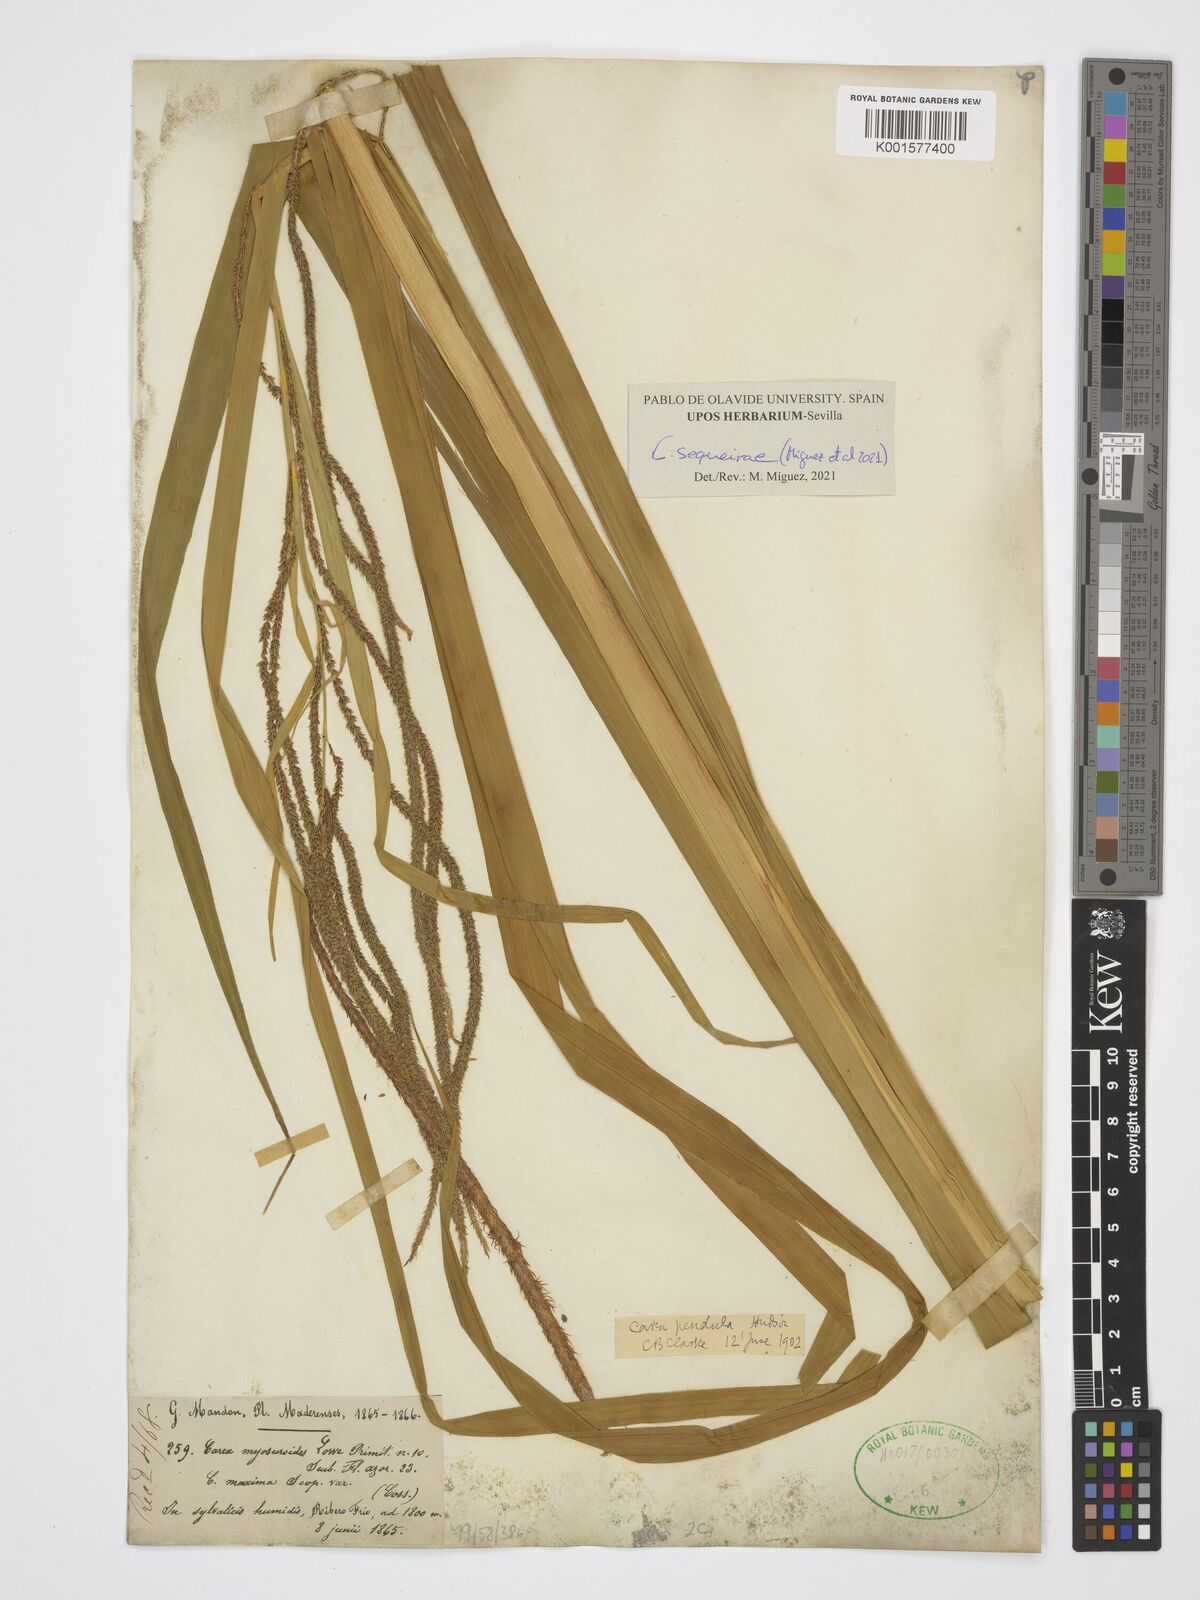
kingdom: Plantae
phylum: Tracheophyta
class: Liliopsida
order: Poales
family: Cyperaceae
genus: Carex
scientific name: Carex pendula
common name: Pendulous sedge
